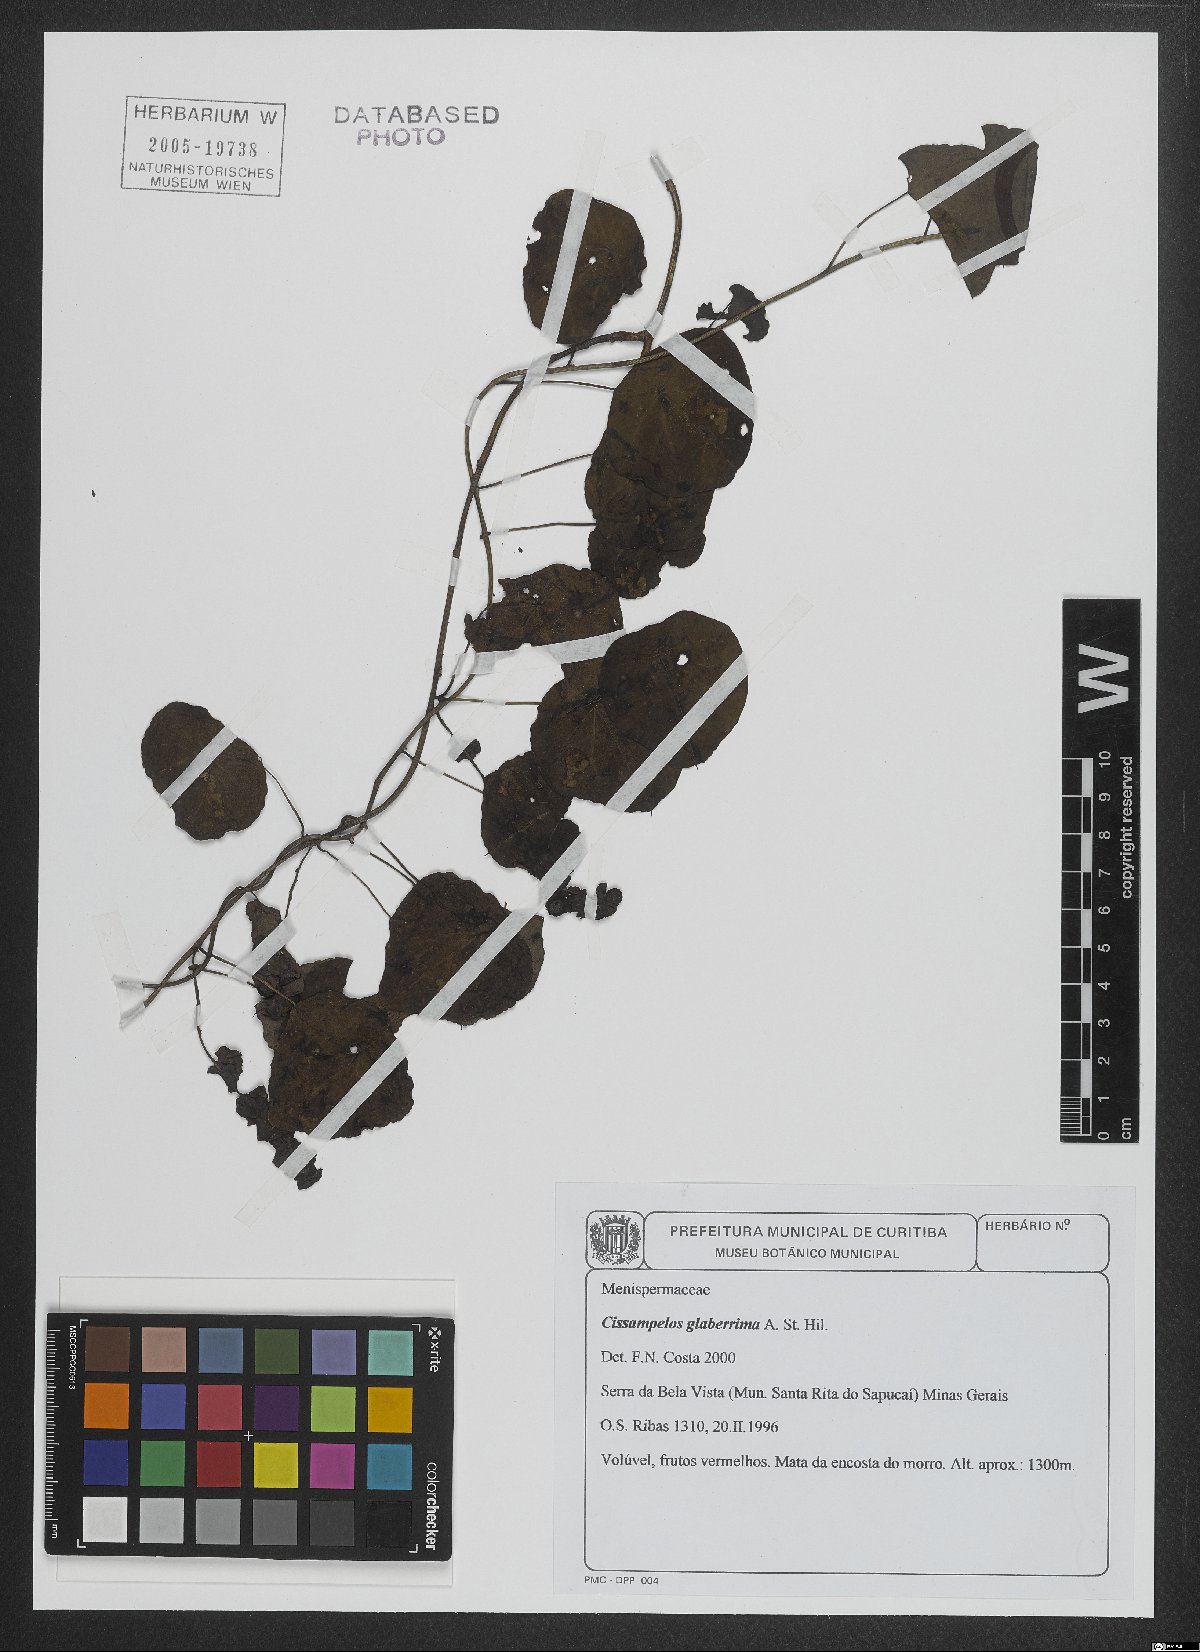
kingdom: Plantae
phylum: Tracheophyta
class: Magnoliopsida
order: Ranunculales
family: Menispermaceae
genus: Cissampelos
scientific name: Cissampelos glaberrima
